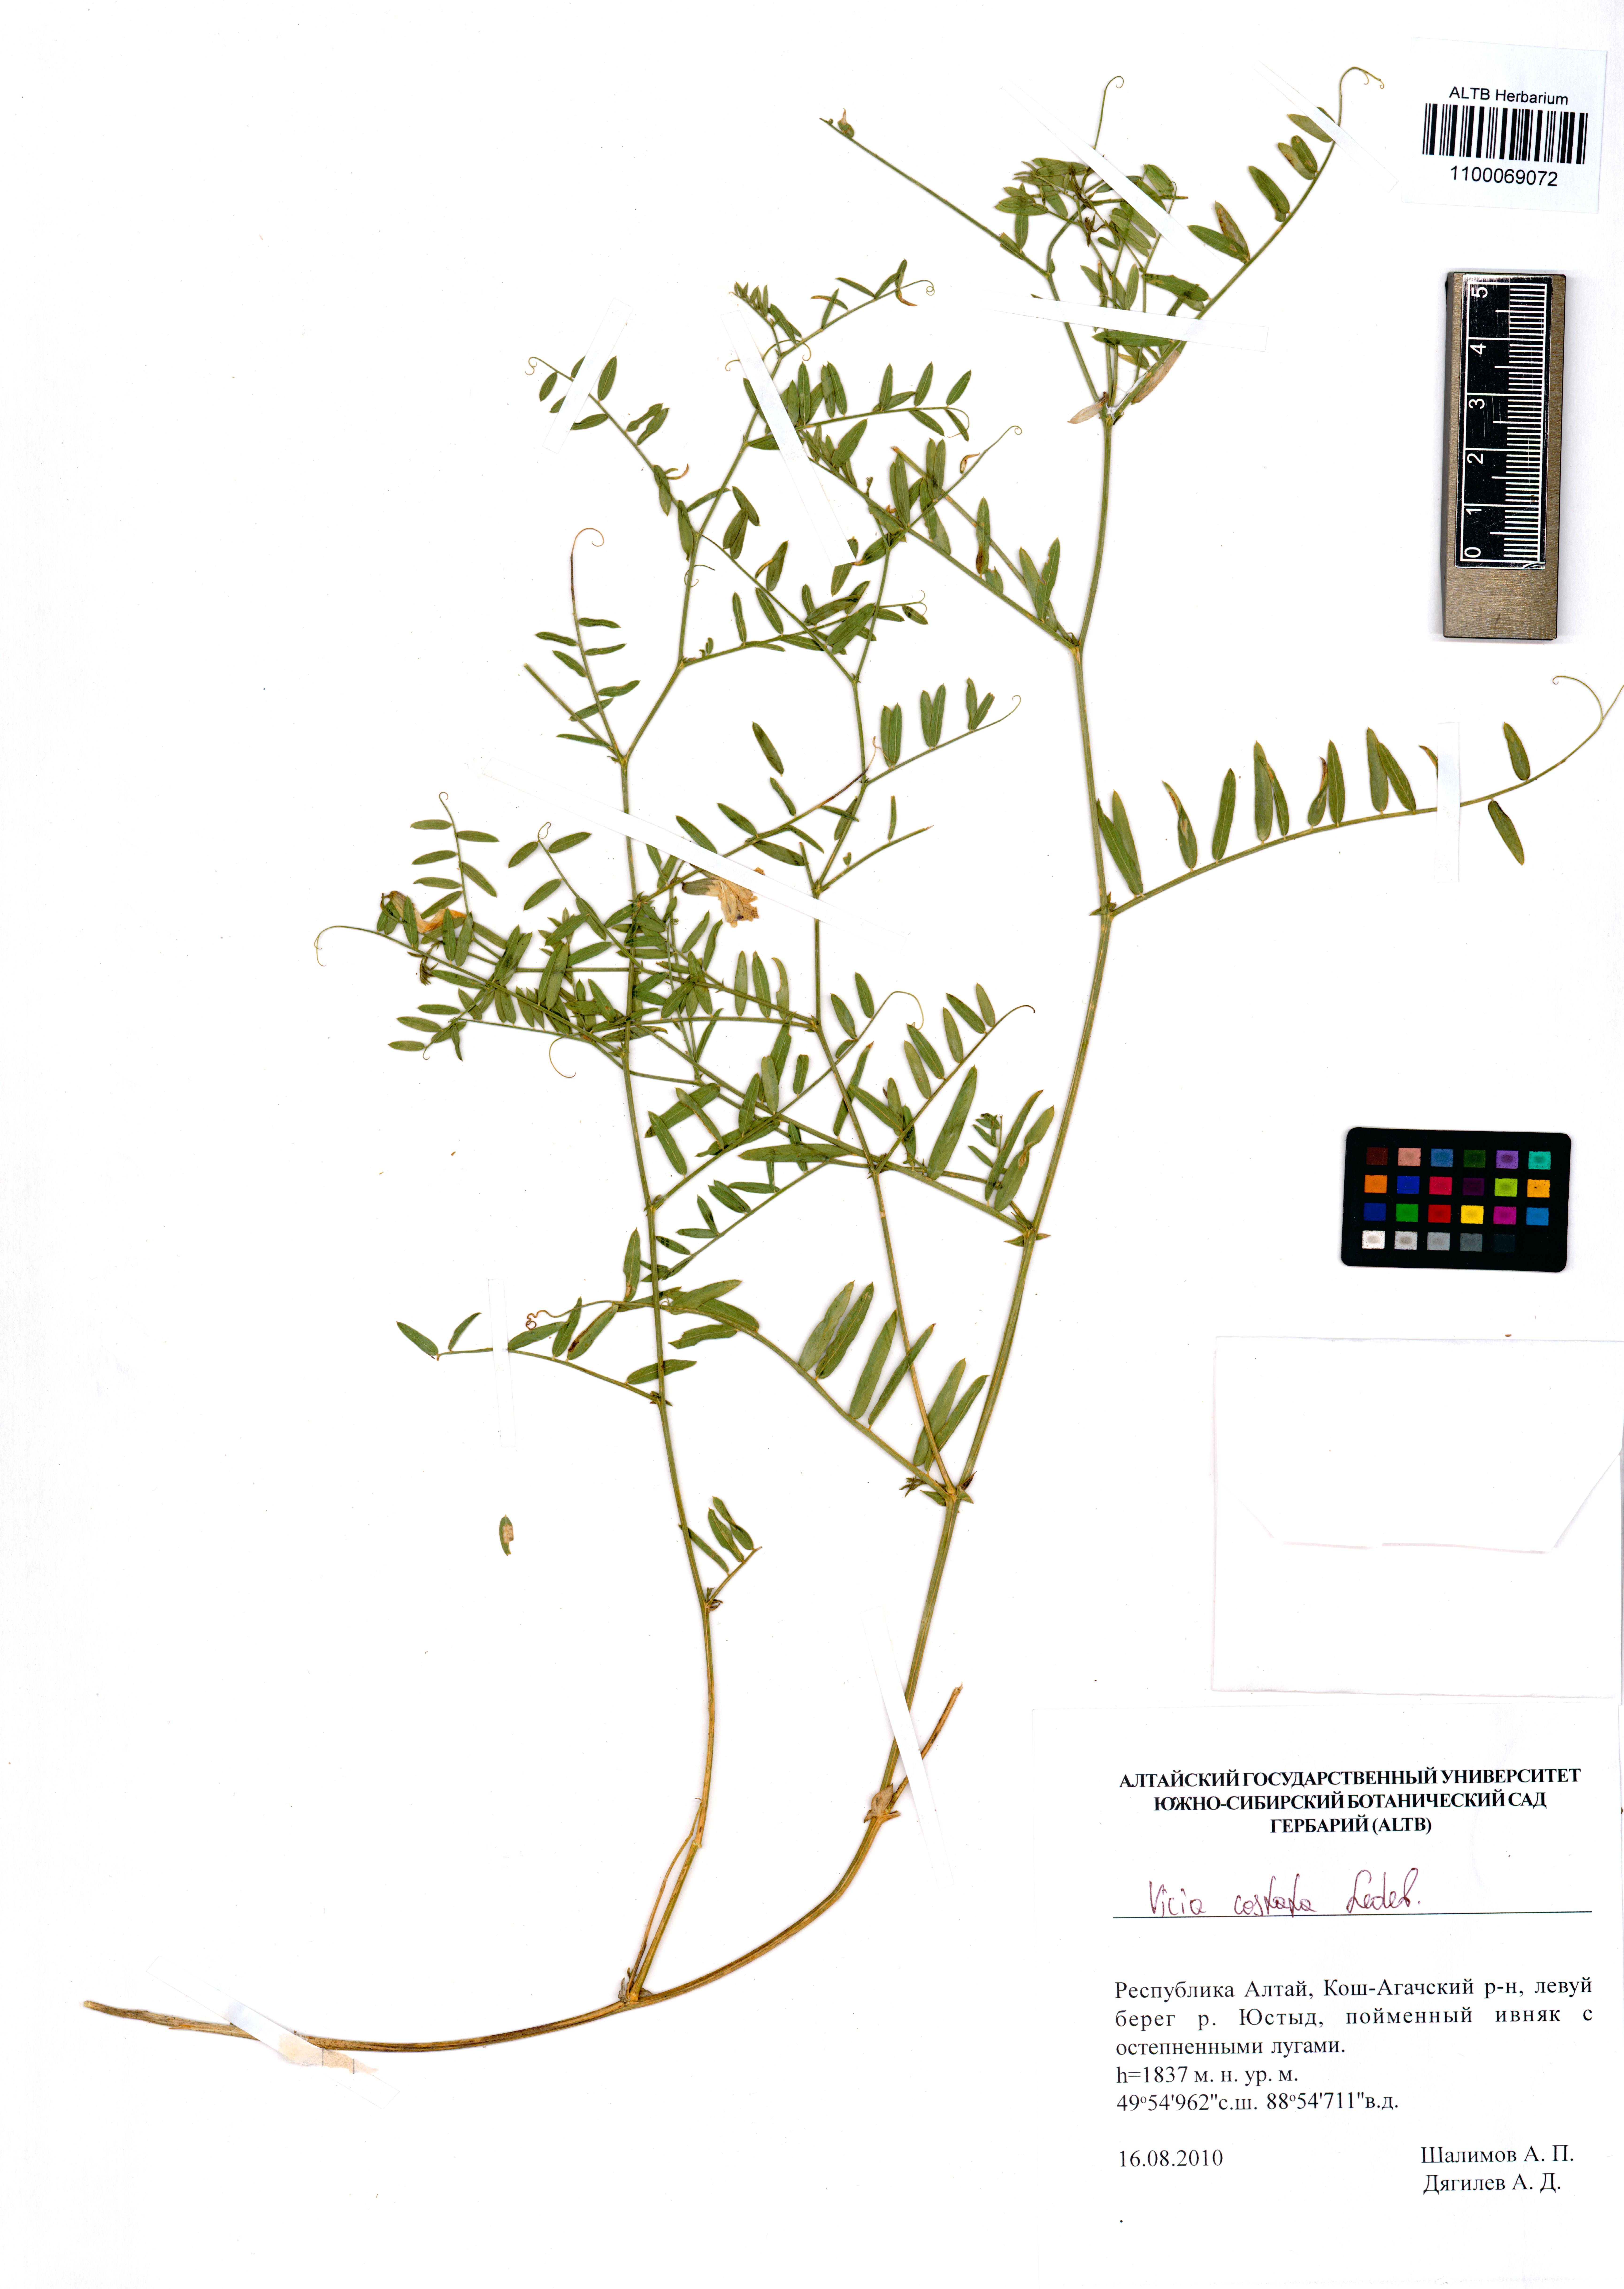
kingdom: Plantae
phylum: Tracheophyta
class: Magnoliopsida
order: Fabales
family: Fabaceae
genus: Vicia
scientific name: Vicia costata
